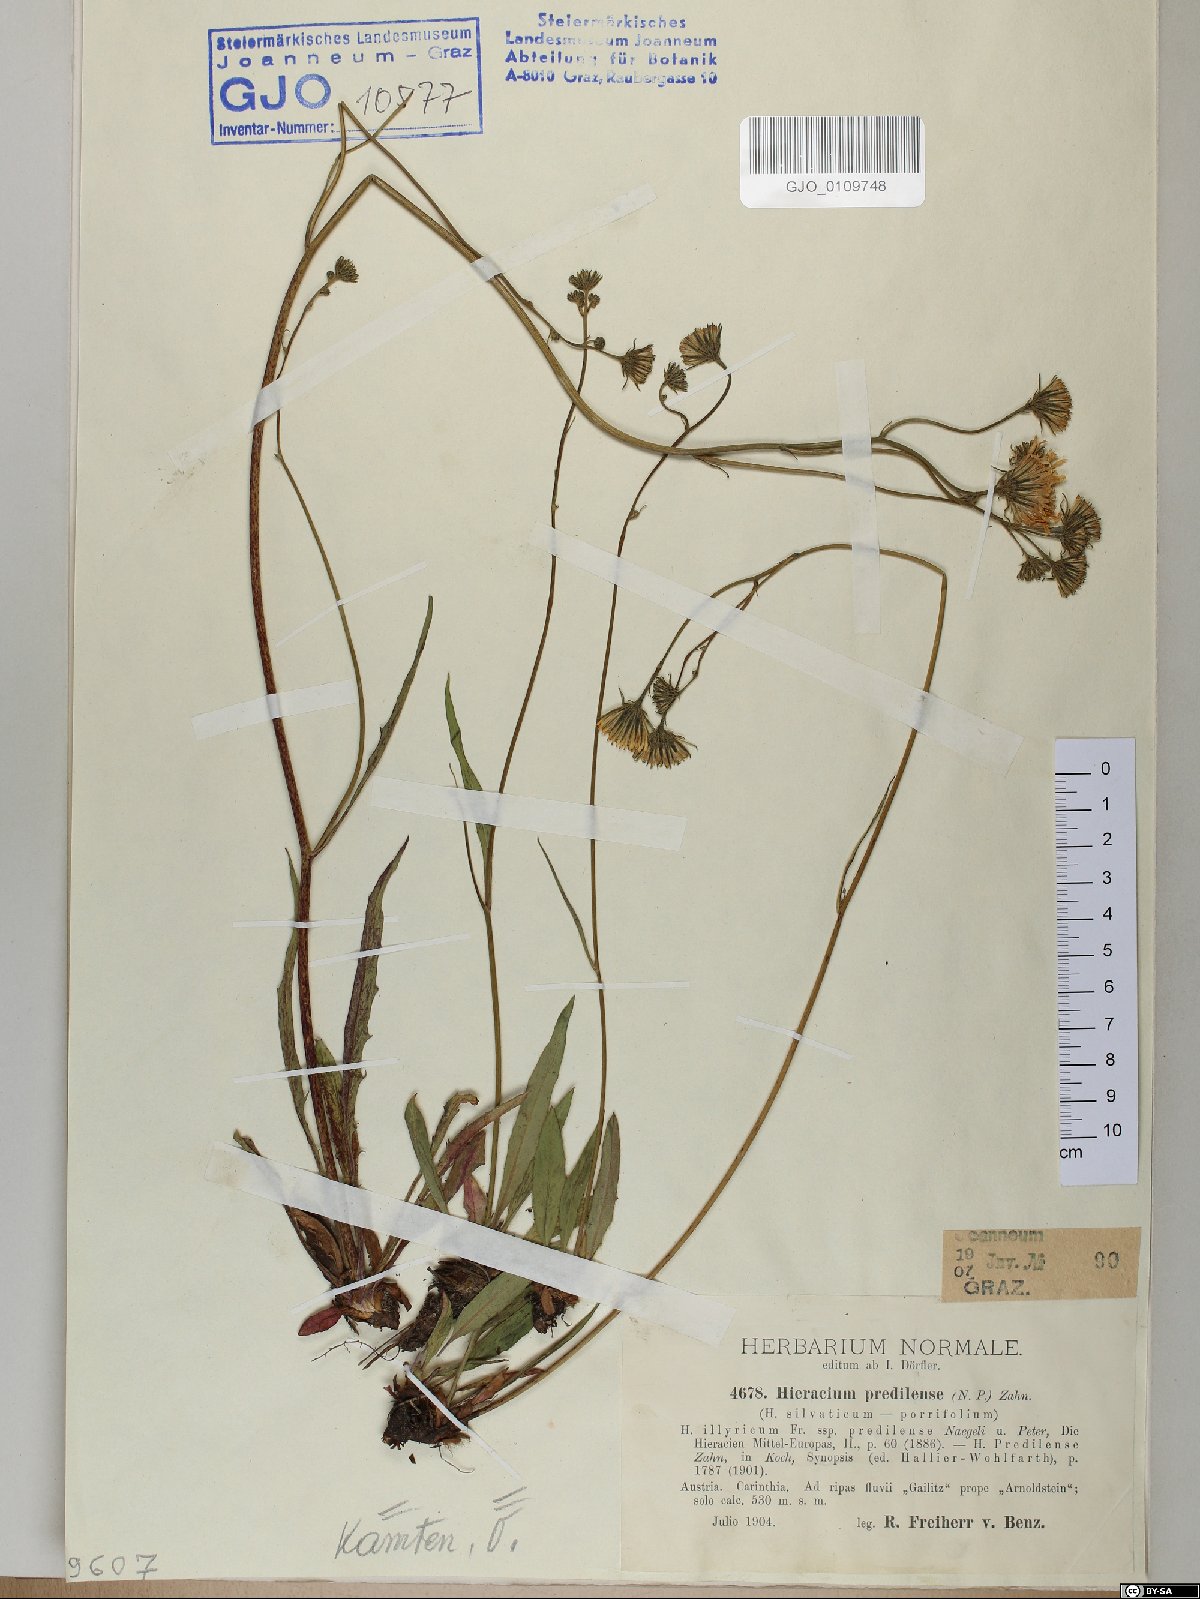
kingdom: Plantae
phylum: Tracheophyta
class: Magnoliopsida
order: Asterales
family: Asteraceae
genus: Hieracium
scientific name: Hieracium prediliense
